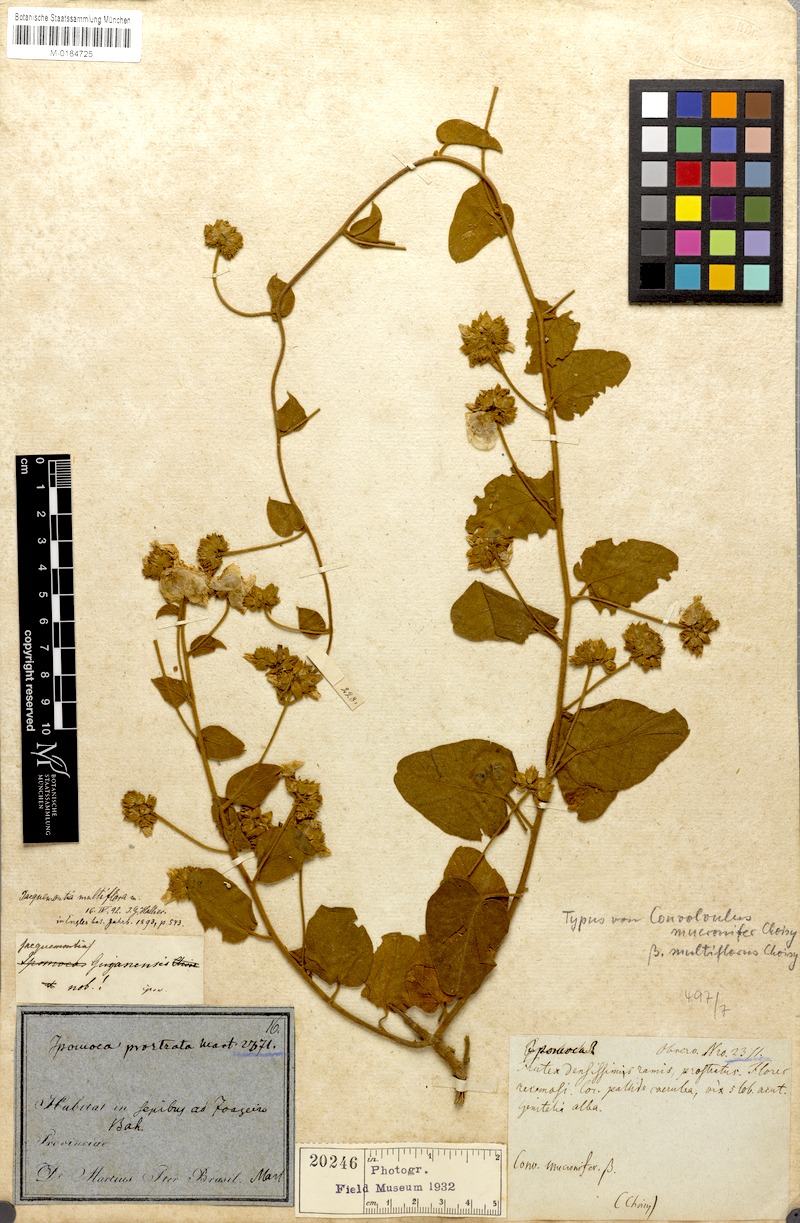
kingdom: Plantae
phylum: Tracheophyta
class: Magnoliopsida
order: Solanales
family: Convolvulaceae
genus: Jacquemontia
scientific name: Jacquemontia guyanensis
